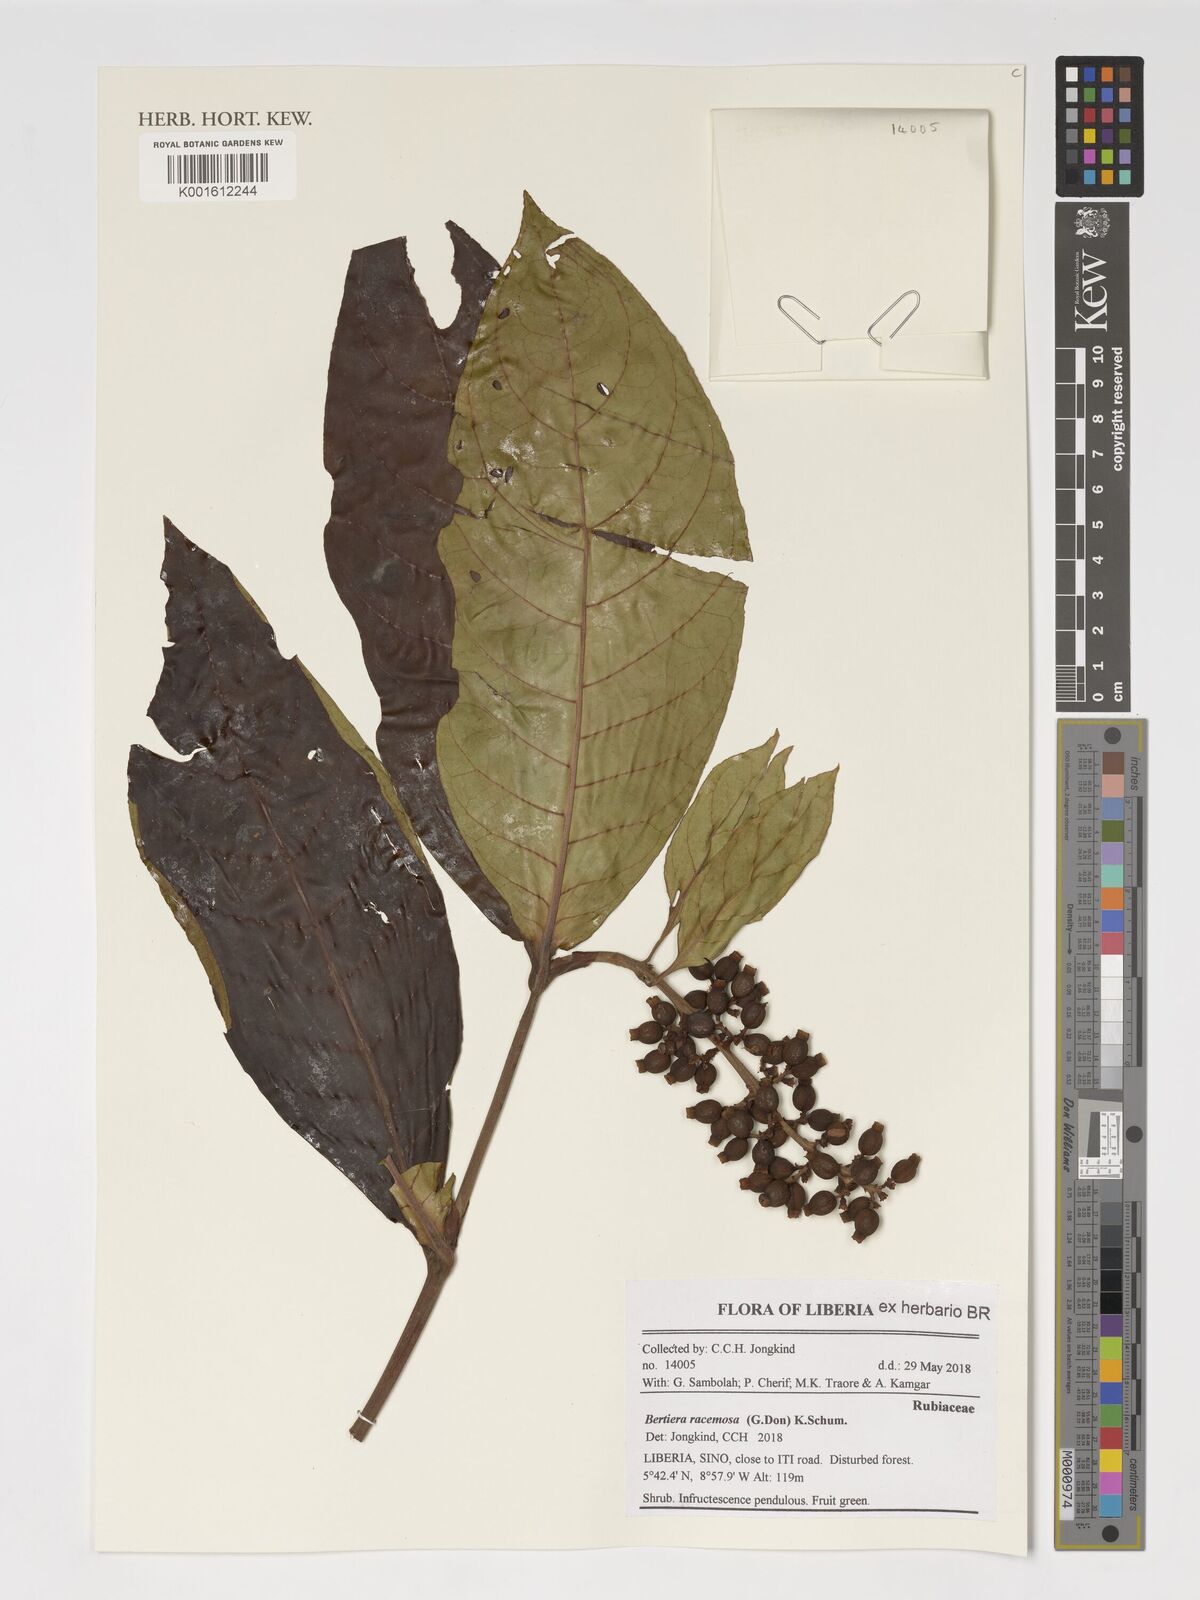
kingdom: Plantae
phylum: Tracheophyta
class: Magnoliopsida
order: Gentianales
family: Rubiaceae
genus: Bertiera
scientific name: Bertiera racemosa
